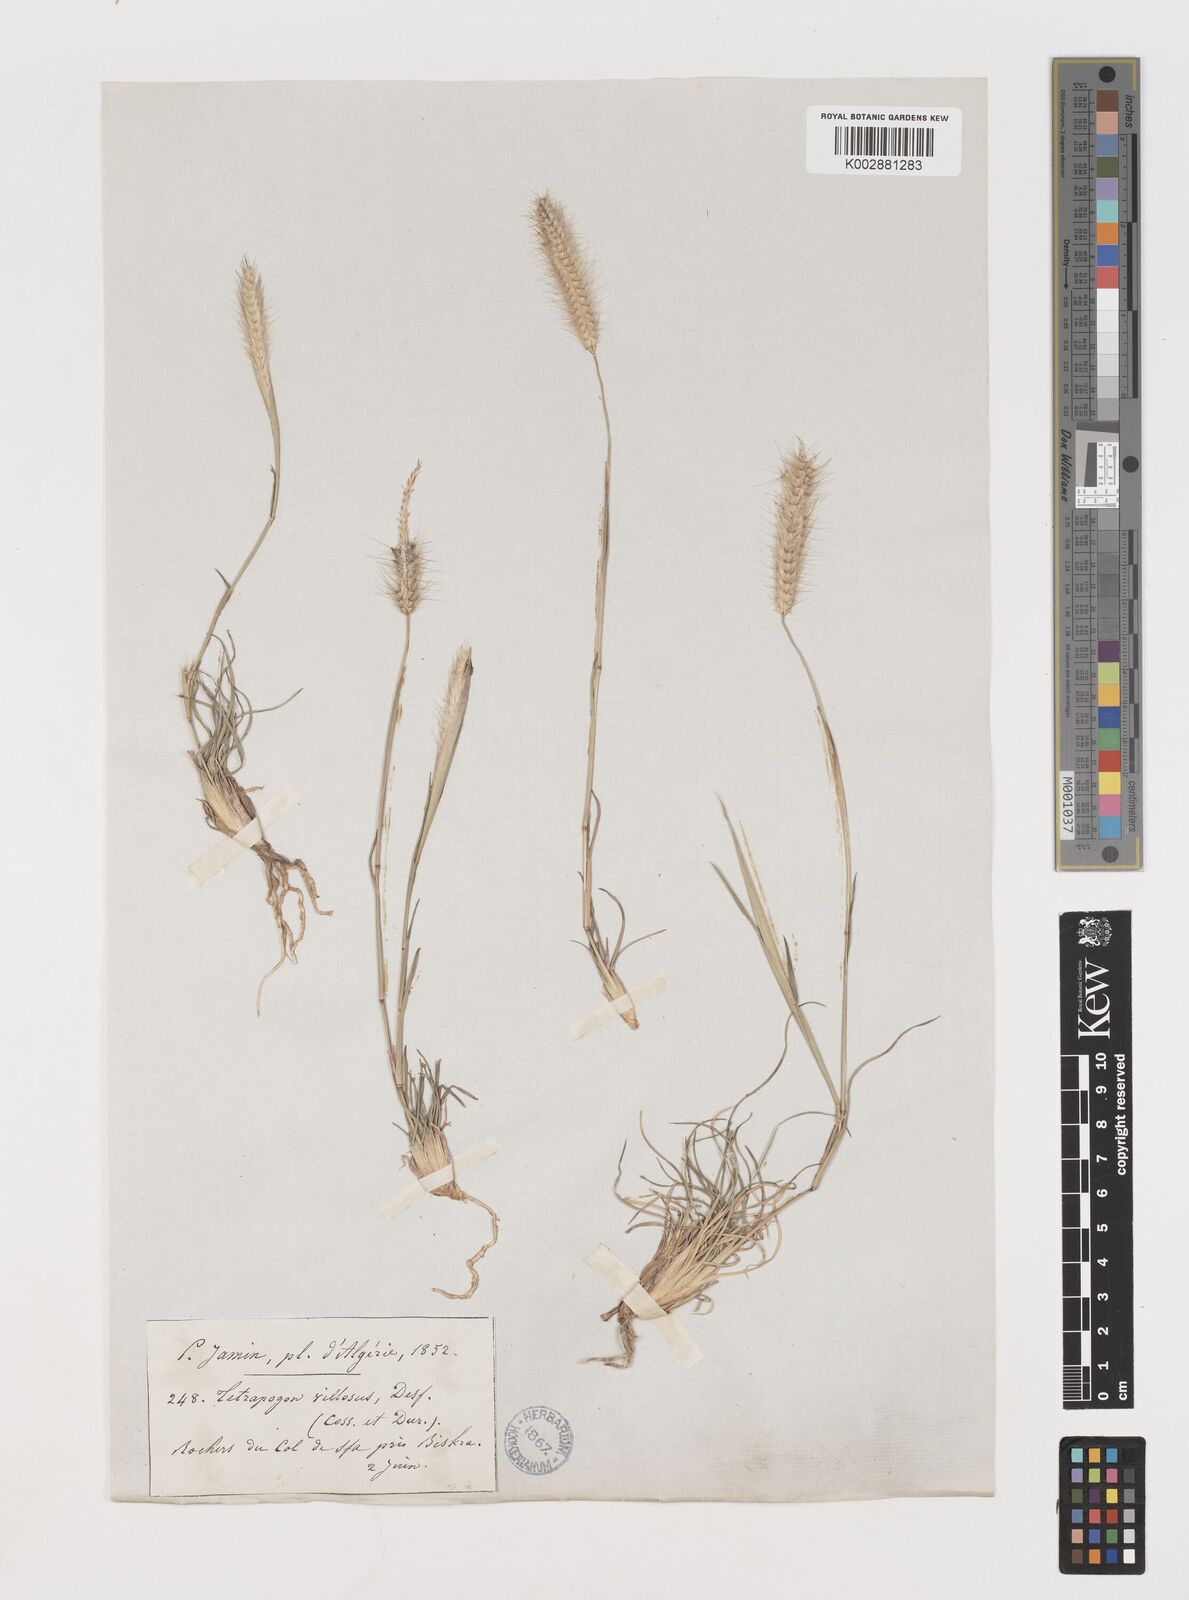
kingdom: Plantae
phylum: Tracheophyta
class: Liliopsida
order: Poales
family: Poaceae
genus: Tetrapogon
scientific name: Tetrapogon villosus
